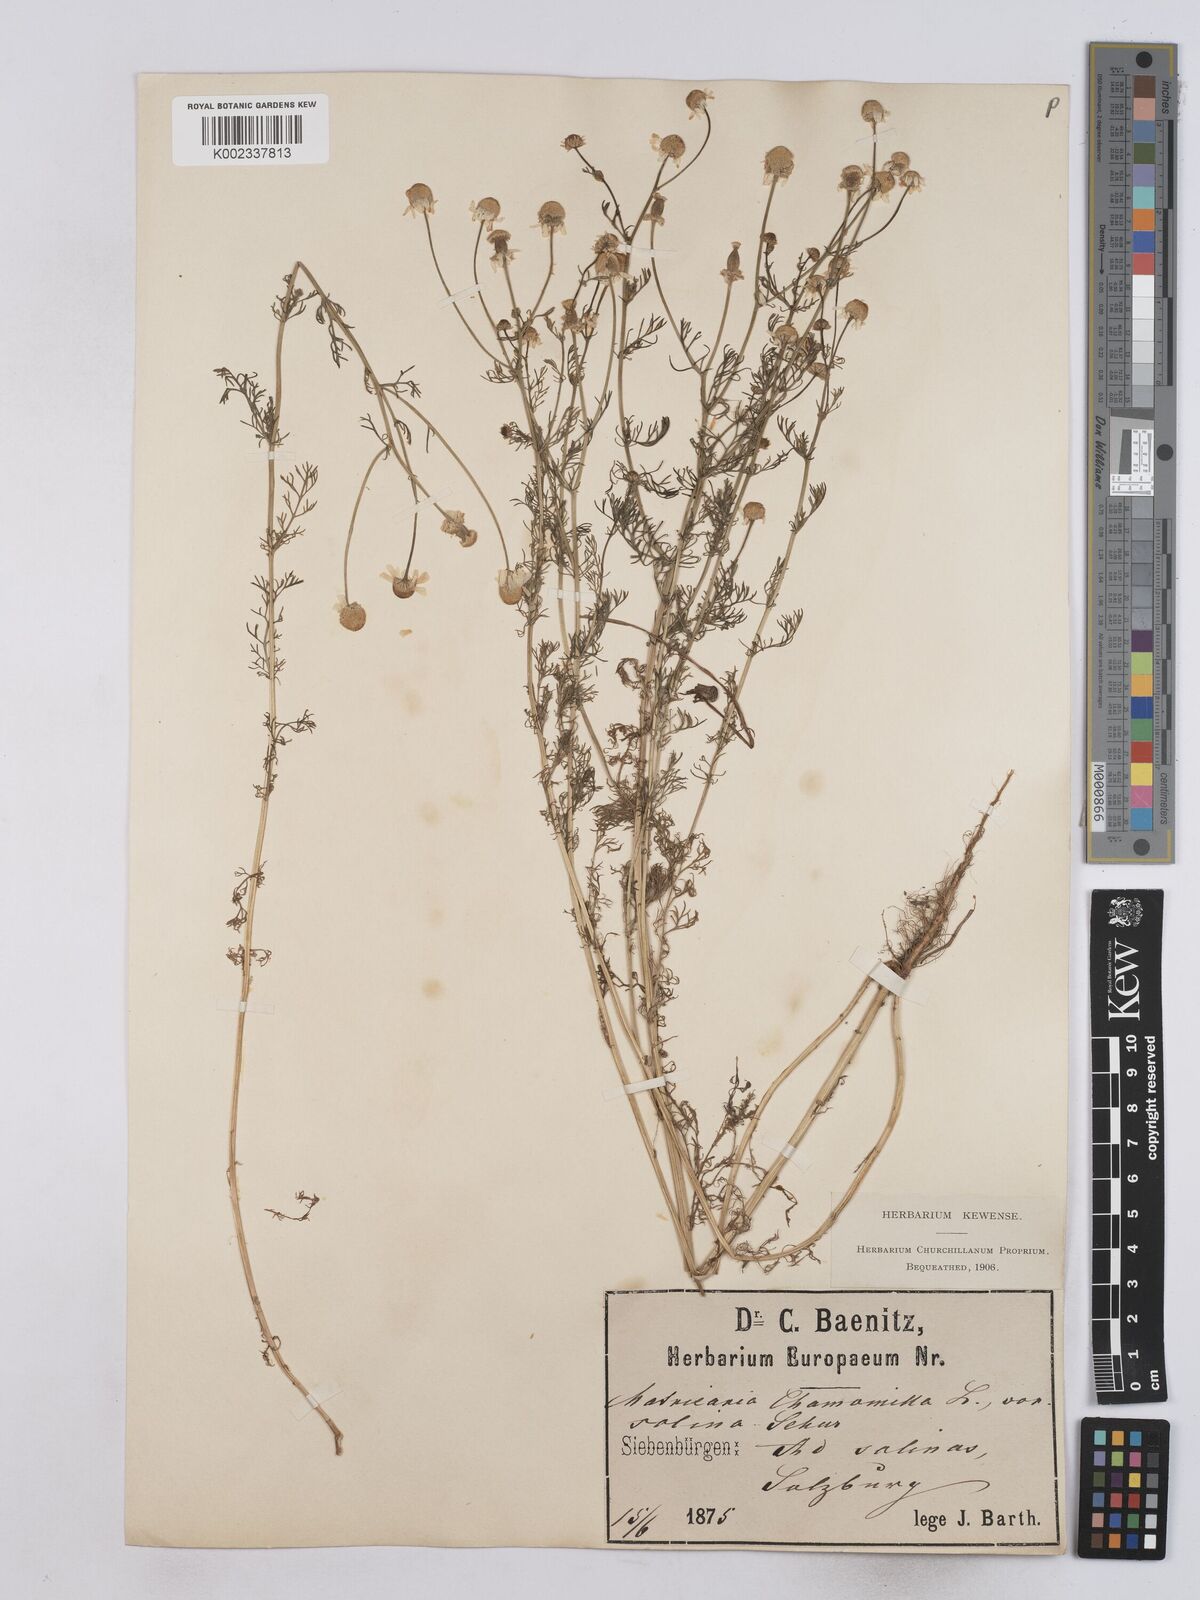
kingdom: Plantae
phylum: Tracheophyta
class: Magnoliopsida
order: Asterales
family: Asteraceae
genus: Matricaria
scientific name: Matricaria chamomilla
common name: Scented mayweed
